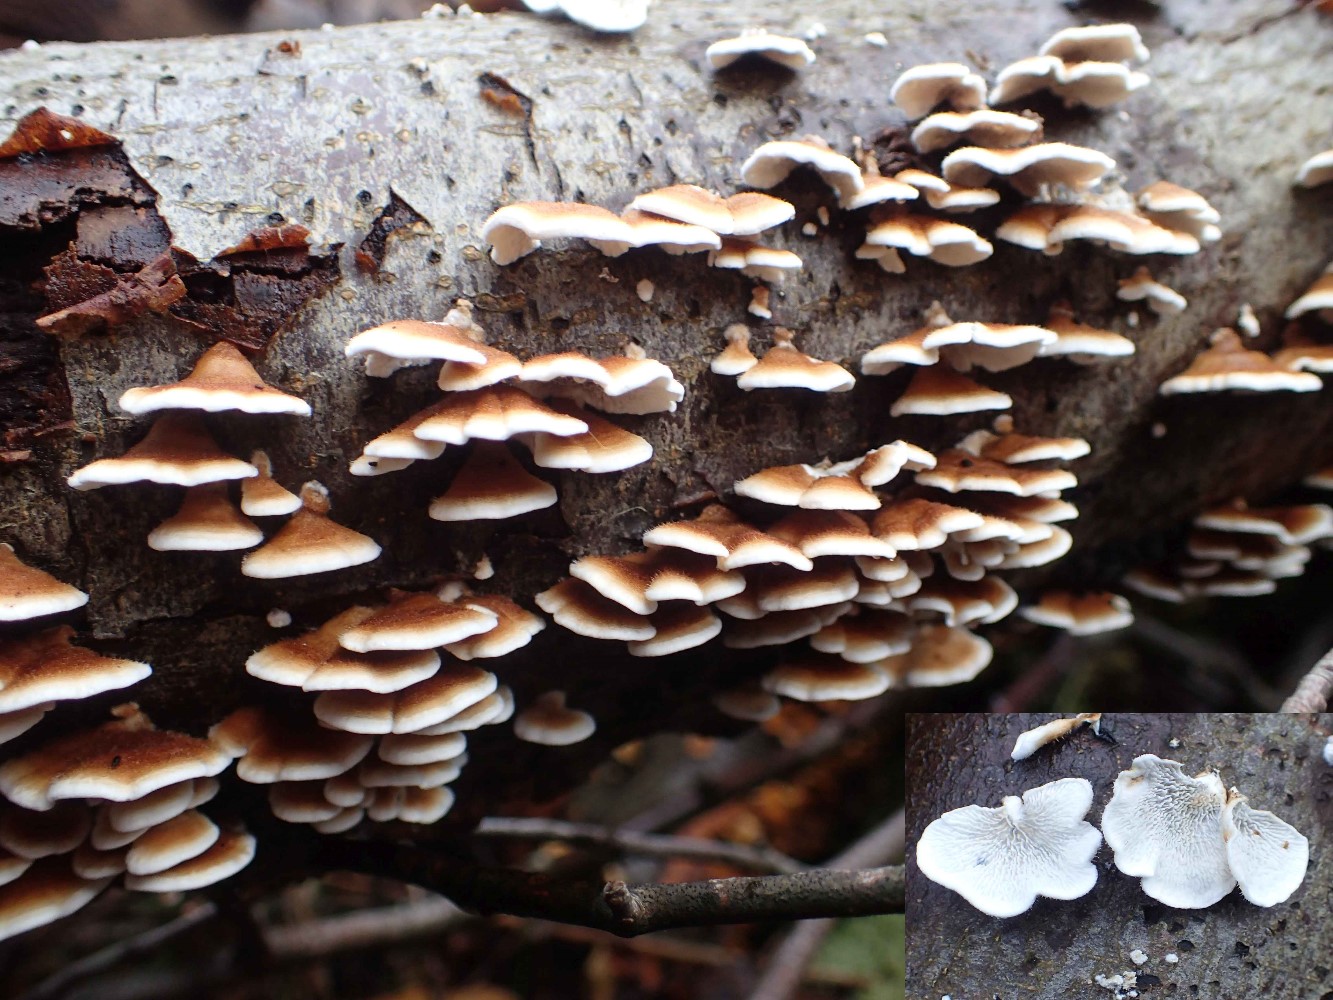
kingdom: Fungi
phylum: Basidiomycota
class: Agaricomycetes
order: Amylocorticiales
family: Amylocorticiaceae
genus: Plicaturopsis
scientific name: Plicaturopsis crispa
